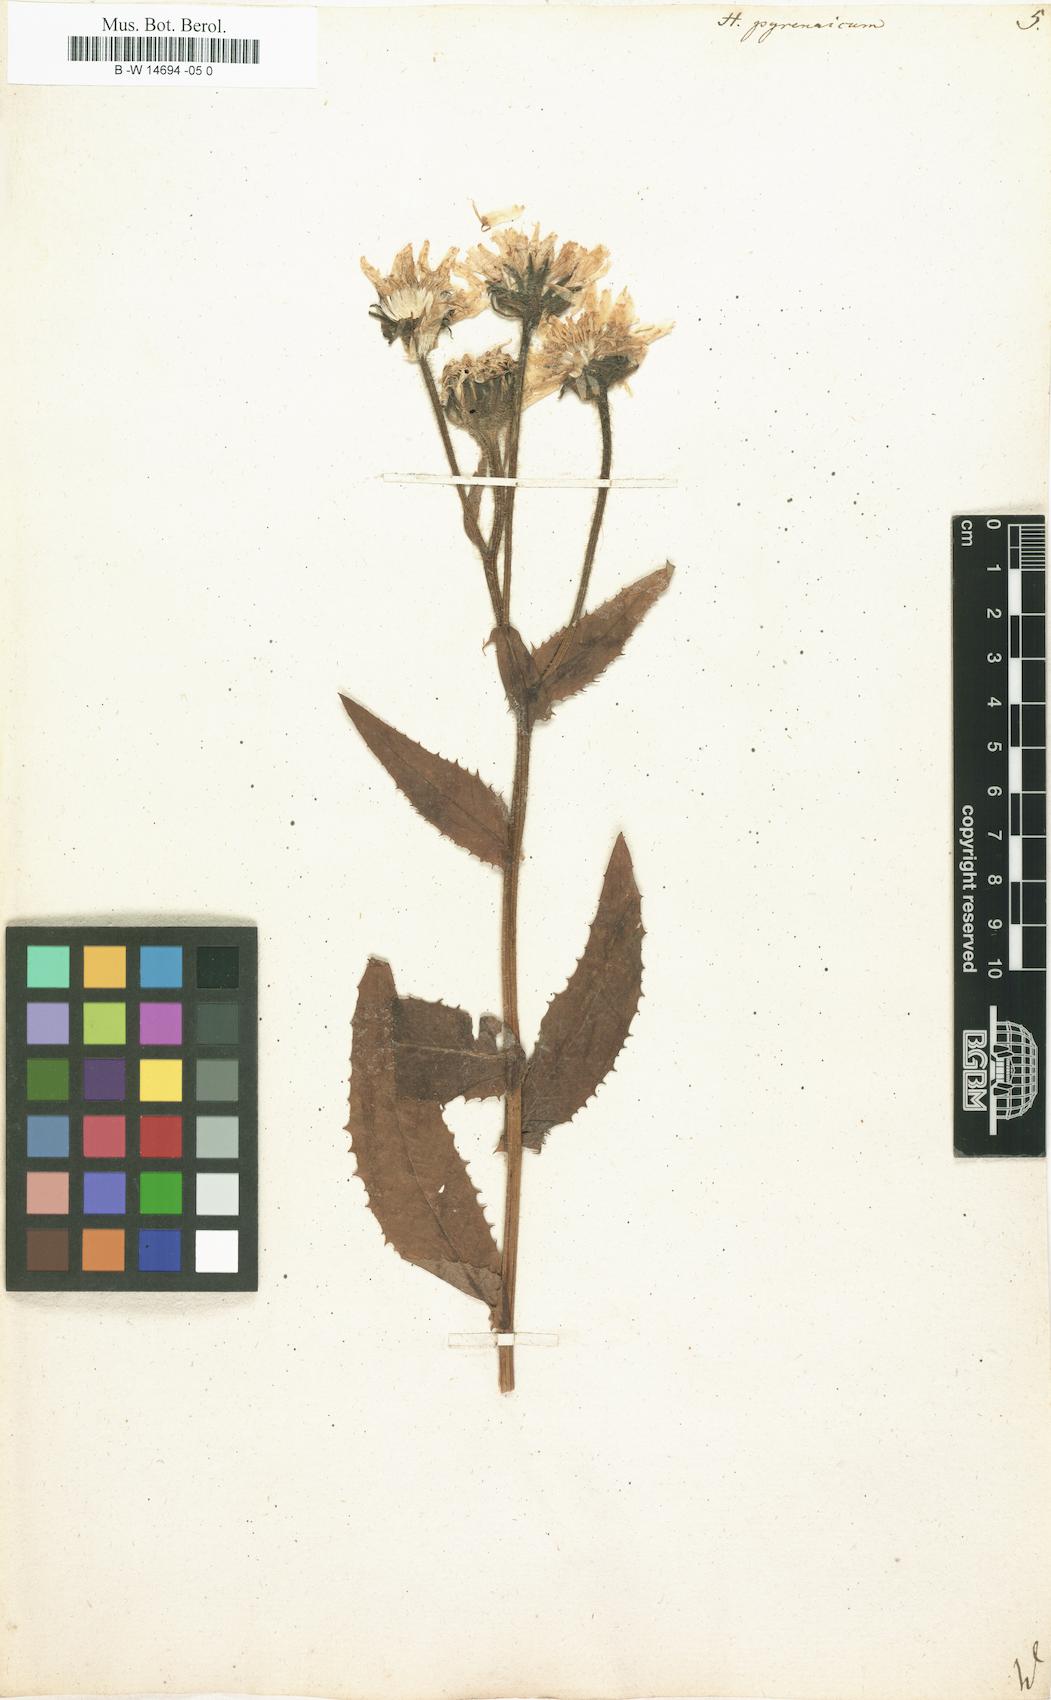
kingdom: Plantae
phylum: Tracheophyta
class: Magnoliopsida
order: Asterales
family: Asteraceae
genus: Hieracium
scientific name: Hieracium pyrenaicum
